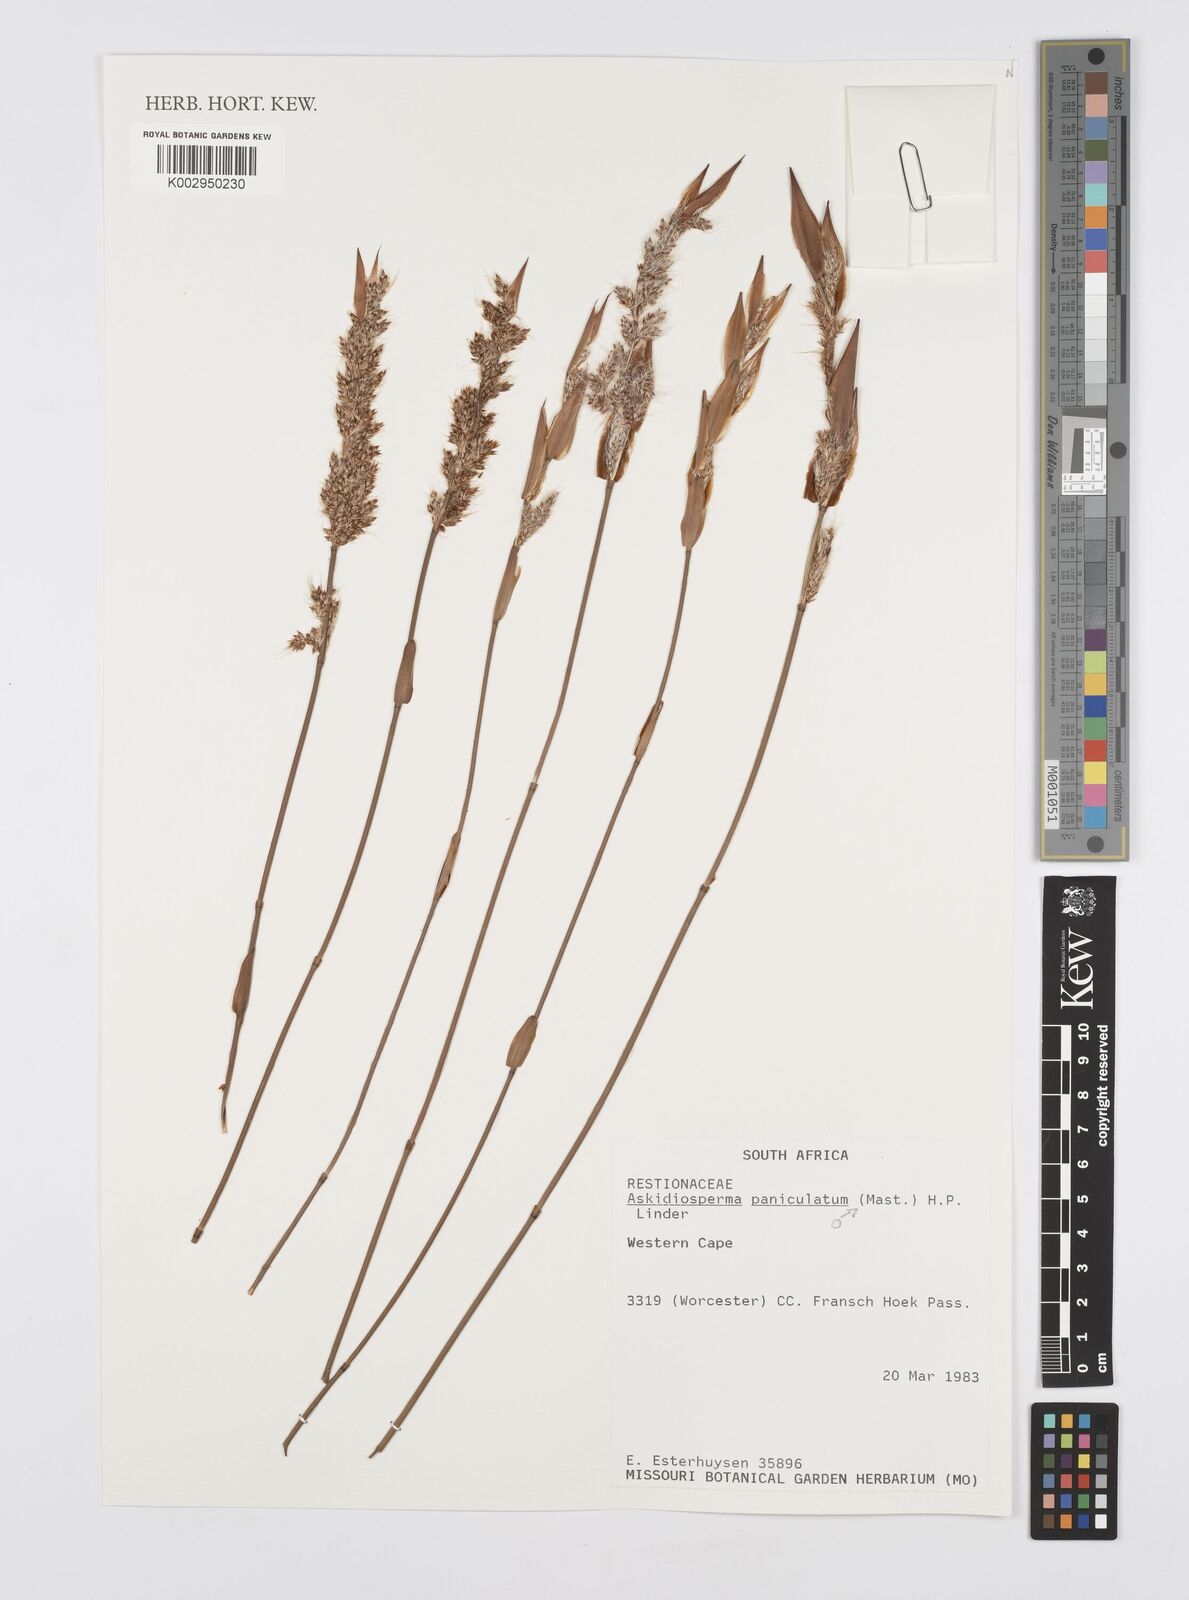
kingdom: Plantae
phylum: Tracheophyta
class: Liliopsida
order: Poales
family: Restionaceae
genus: Askidiosperma
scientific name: Askidiosperma paniculatum
